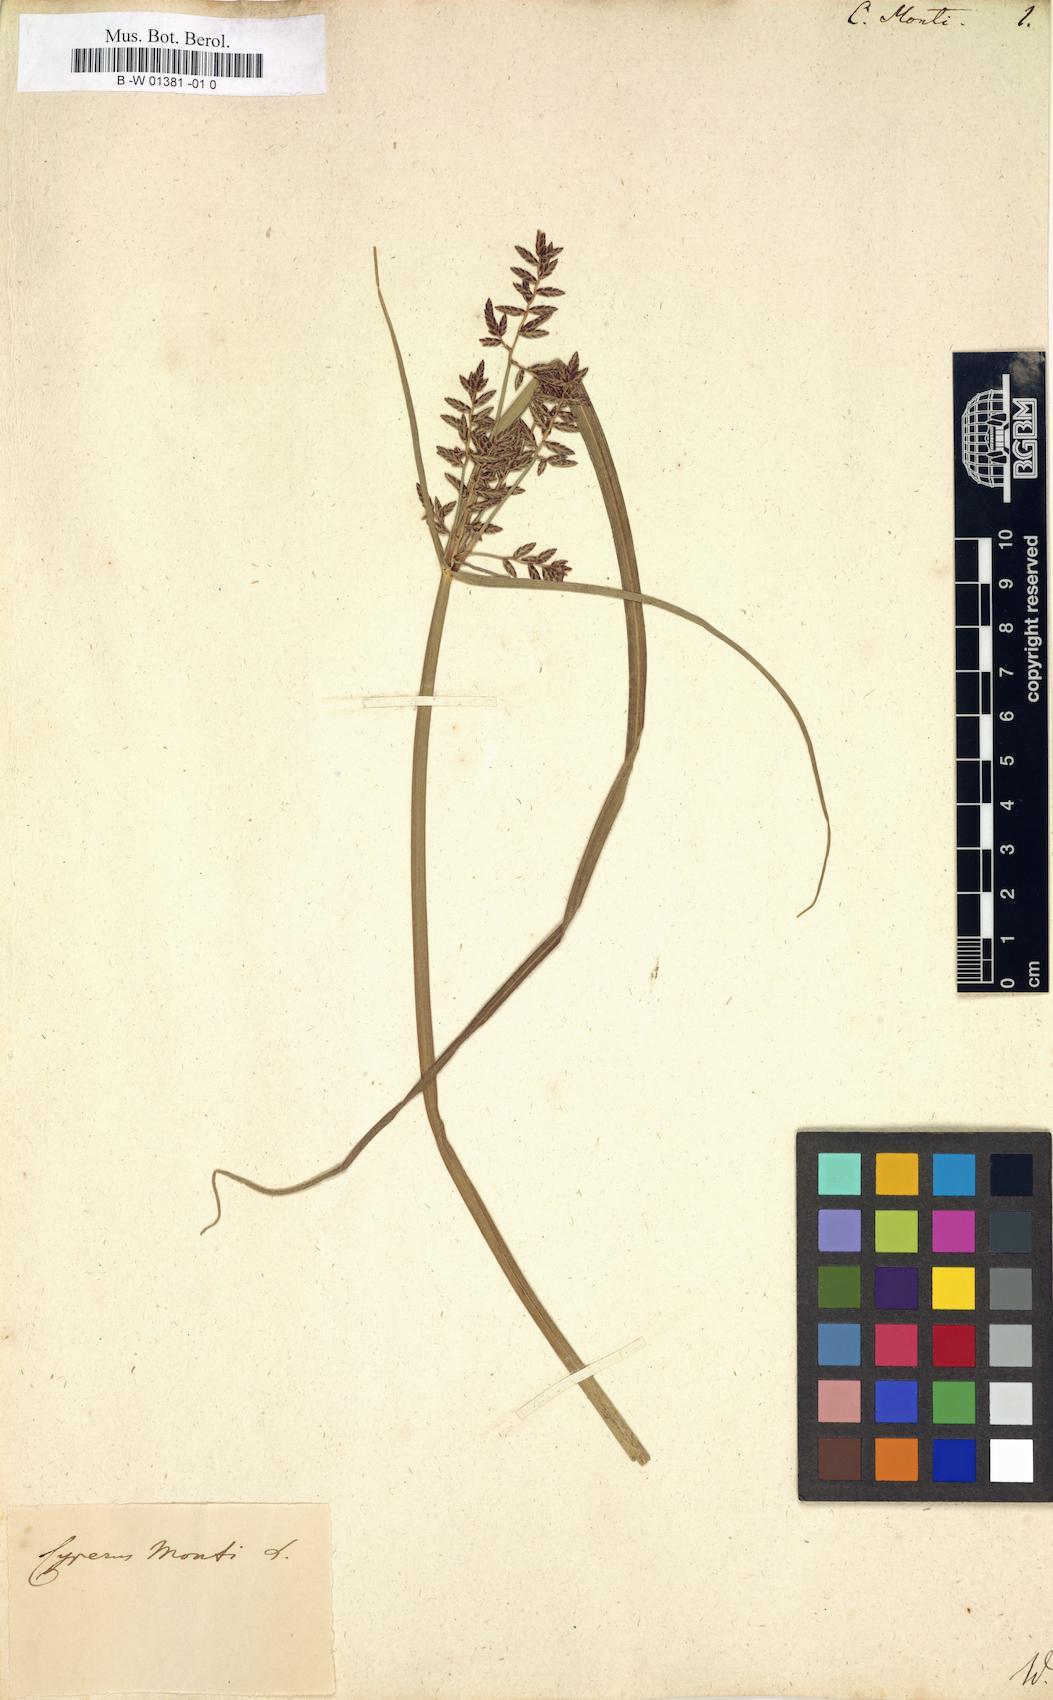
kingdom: Plantae
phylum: Tracheophyta
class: Liliopsida
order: Poales
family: Cyperaceae
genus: Cyperus
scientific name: Cyperus serotinus
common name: Tidalmarsh flatsedge
